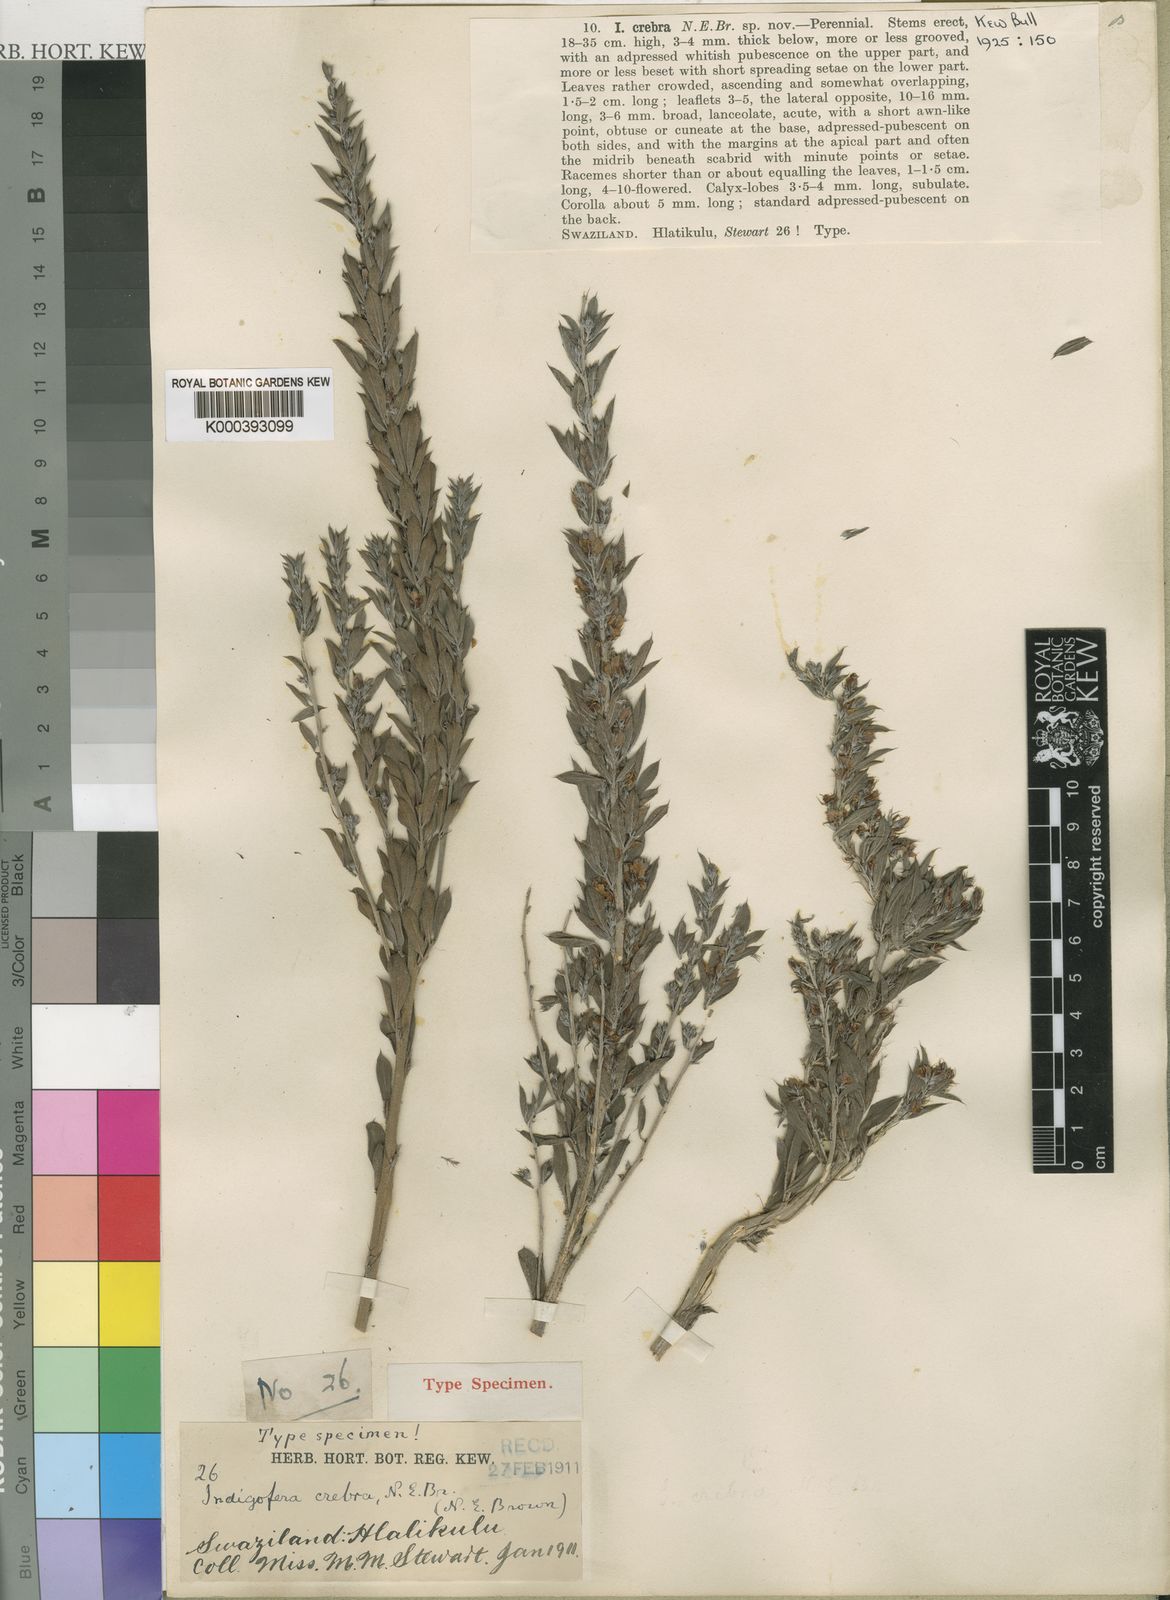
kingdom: Plantae
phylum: Tracheophyta
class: Magnoliopsida
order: Fabales
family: Fabaceae
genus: Indigofera
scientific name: Indigofera crebra
